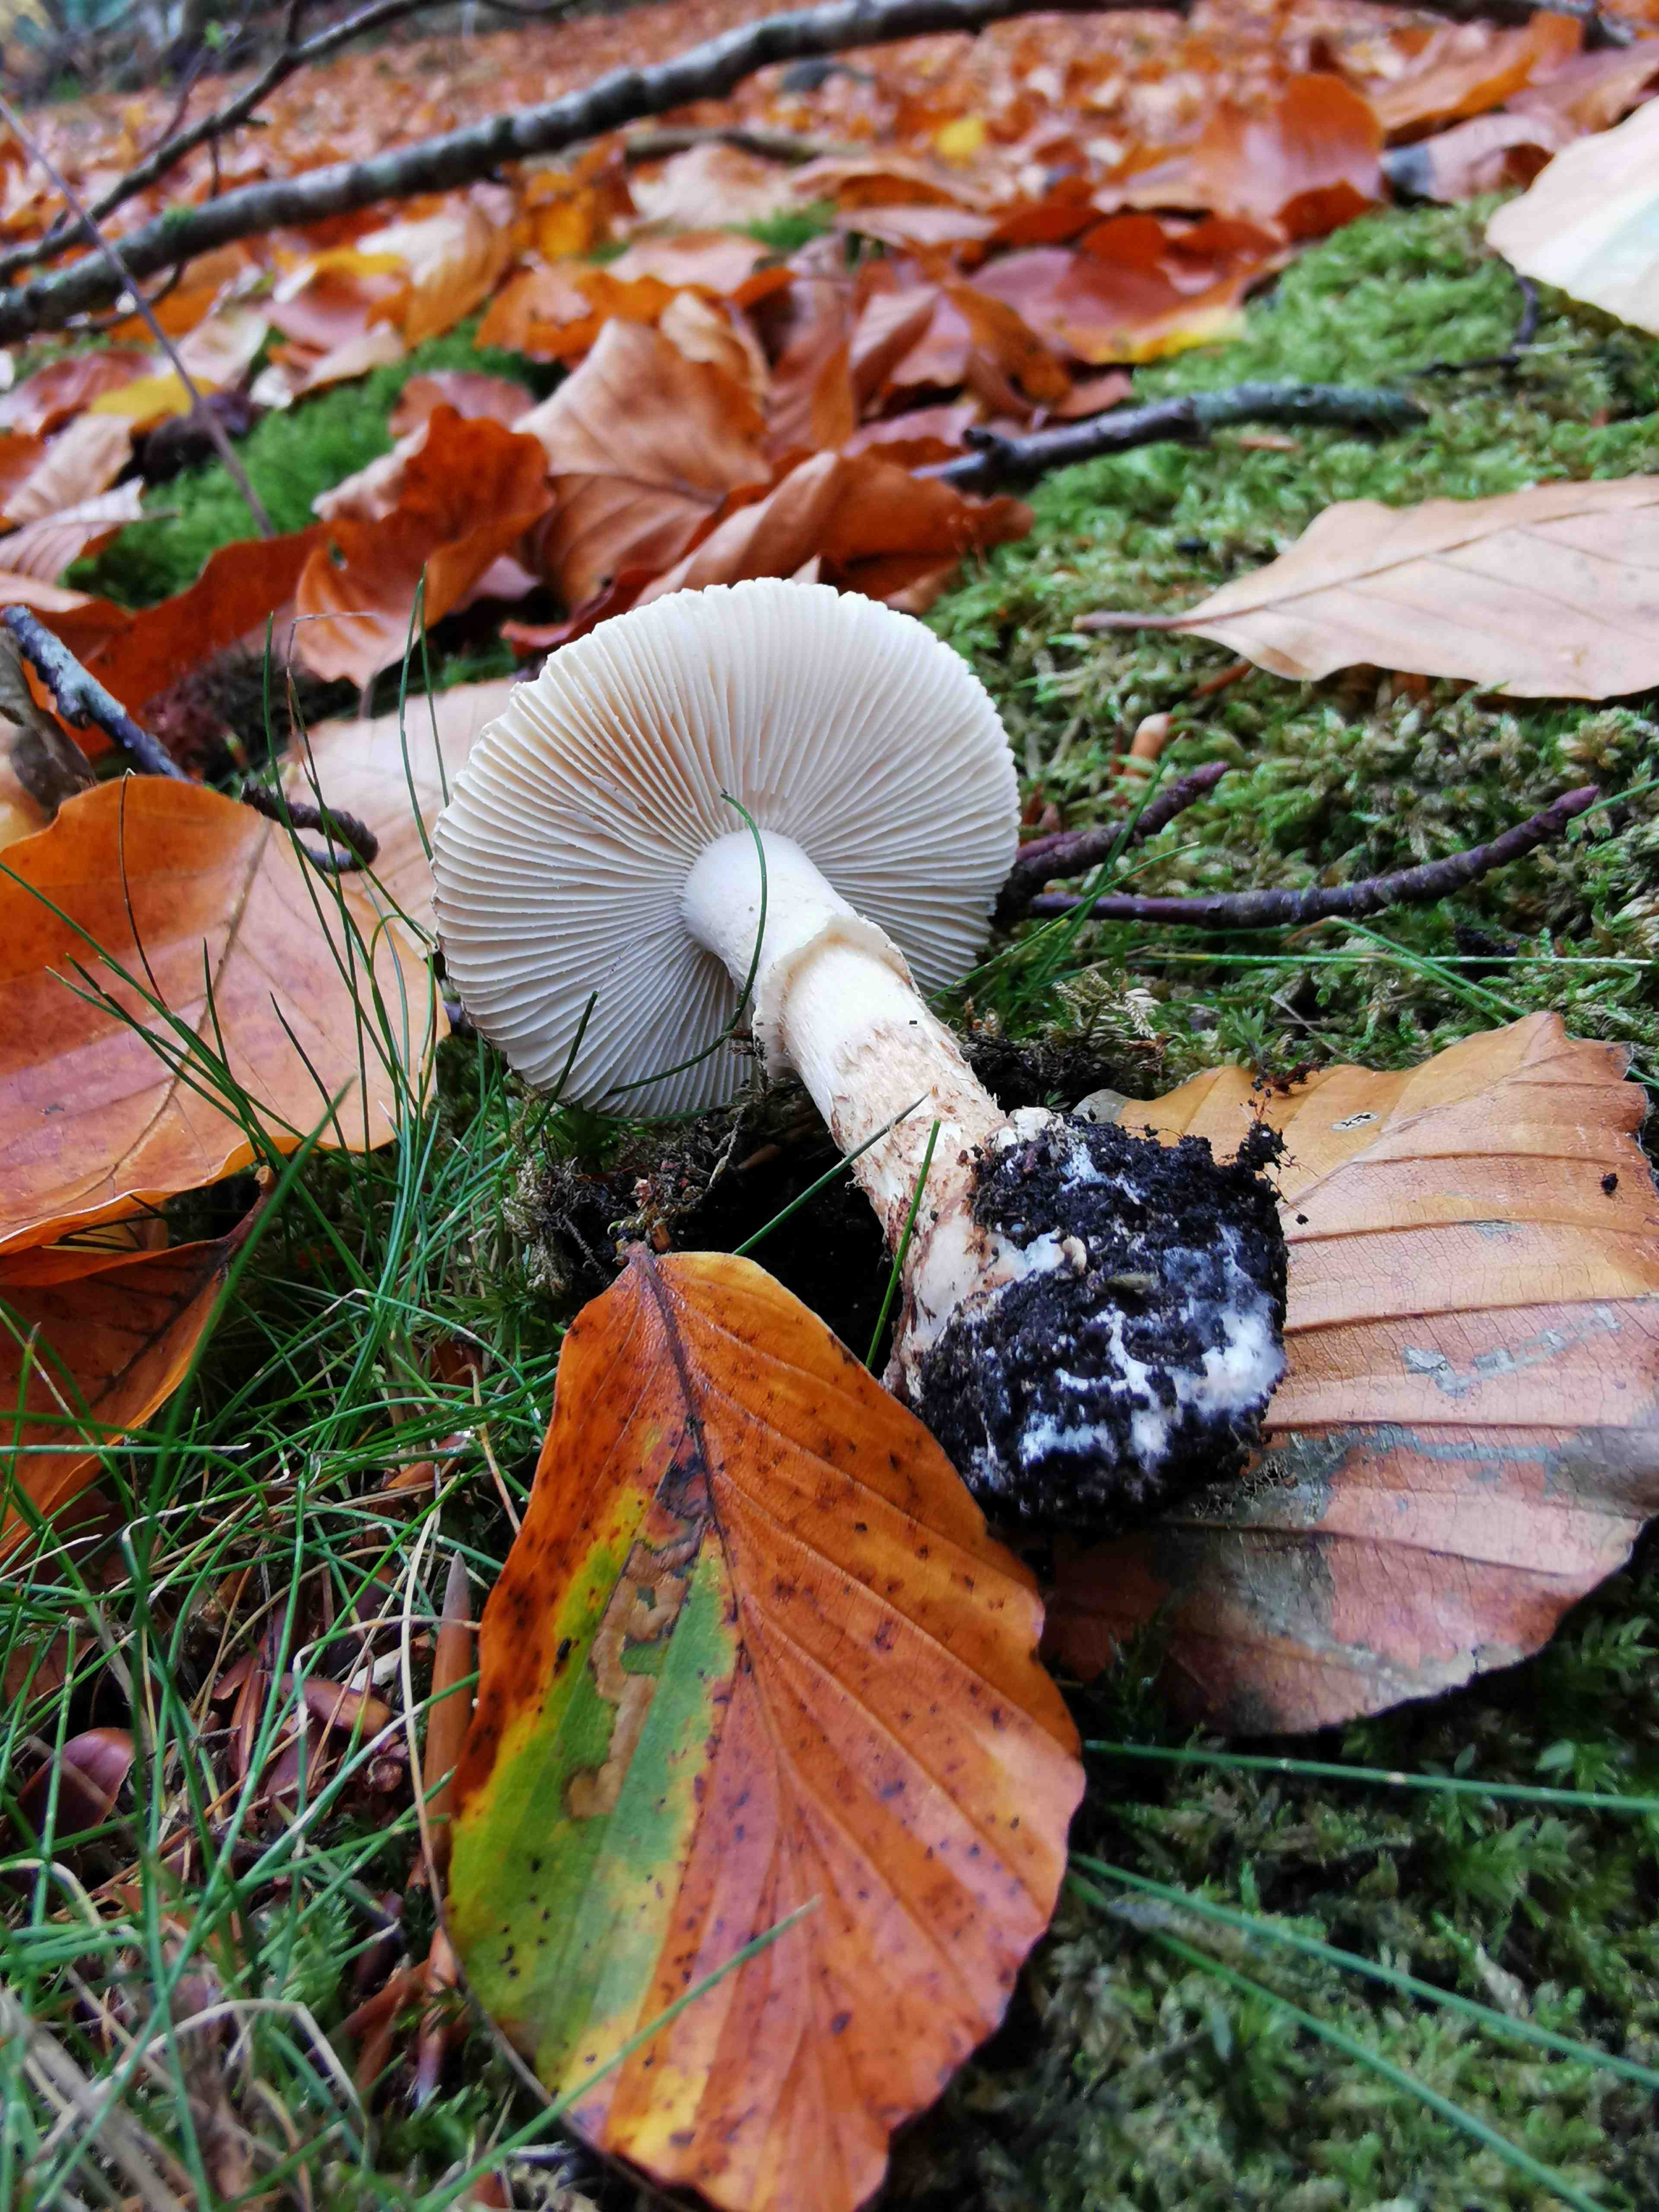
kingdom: Fungi
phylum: Basidiomycota
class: Agaricomycetes
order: Agaricales
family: Amanitaceae
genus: Amanita
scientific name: Amanita citrina
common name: kugleknoldet fluesvamp
